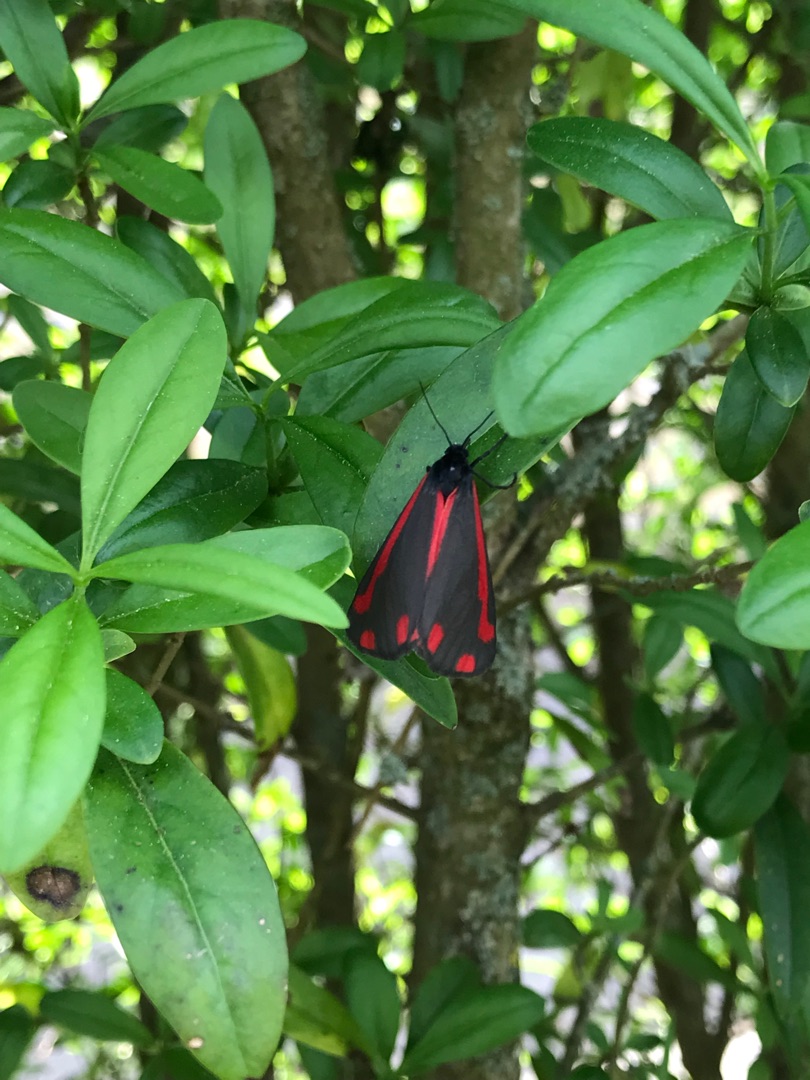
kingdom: Animalia
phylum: Arthropoda
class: Insecta
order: Lepidoptera
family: Erebidae
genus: Tyria
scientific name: Tyria jacobaeae
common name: Blodplet
